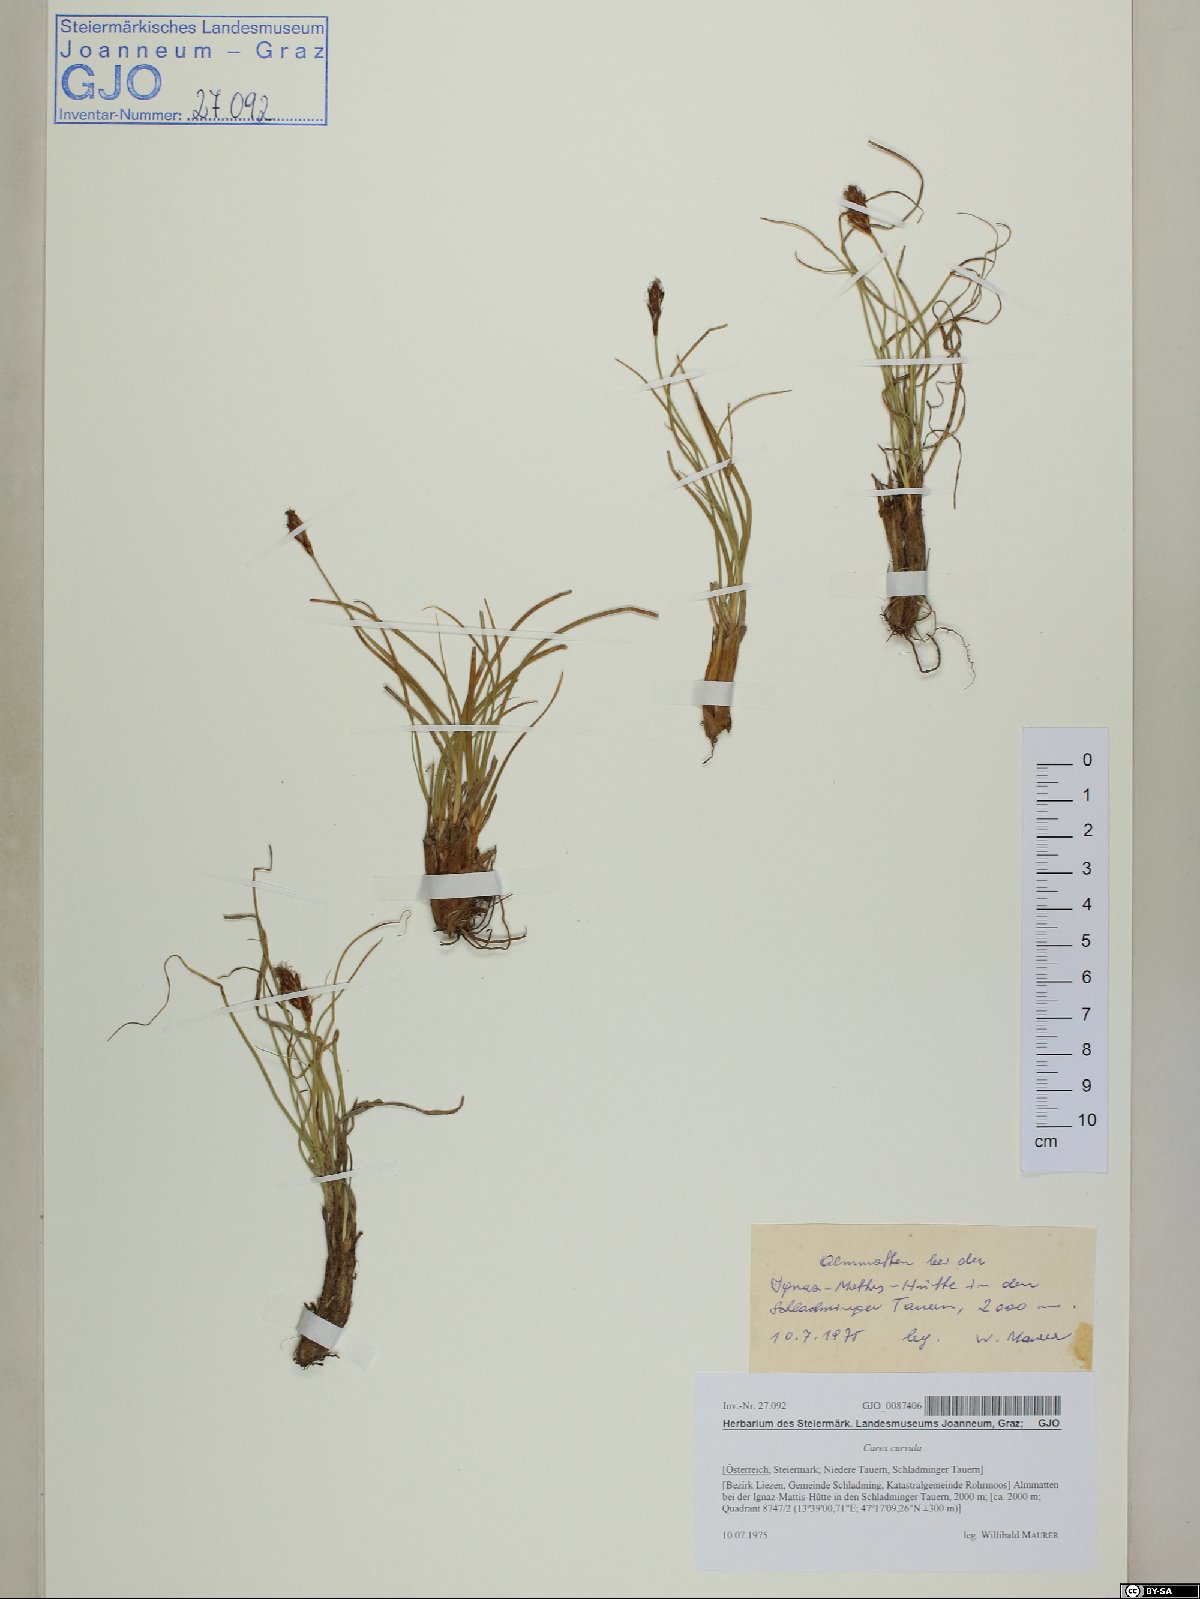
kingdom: Plantae
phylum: Tracheophyta
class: Liliopsida
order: Poales
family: Cyperaceae
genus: Carex
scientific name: Carex curvula
